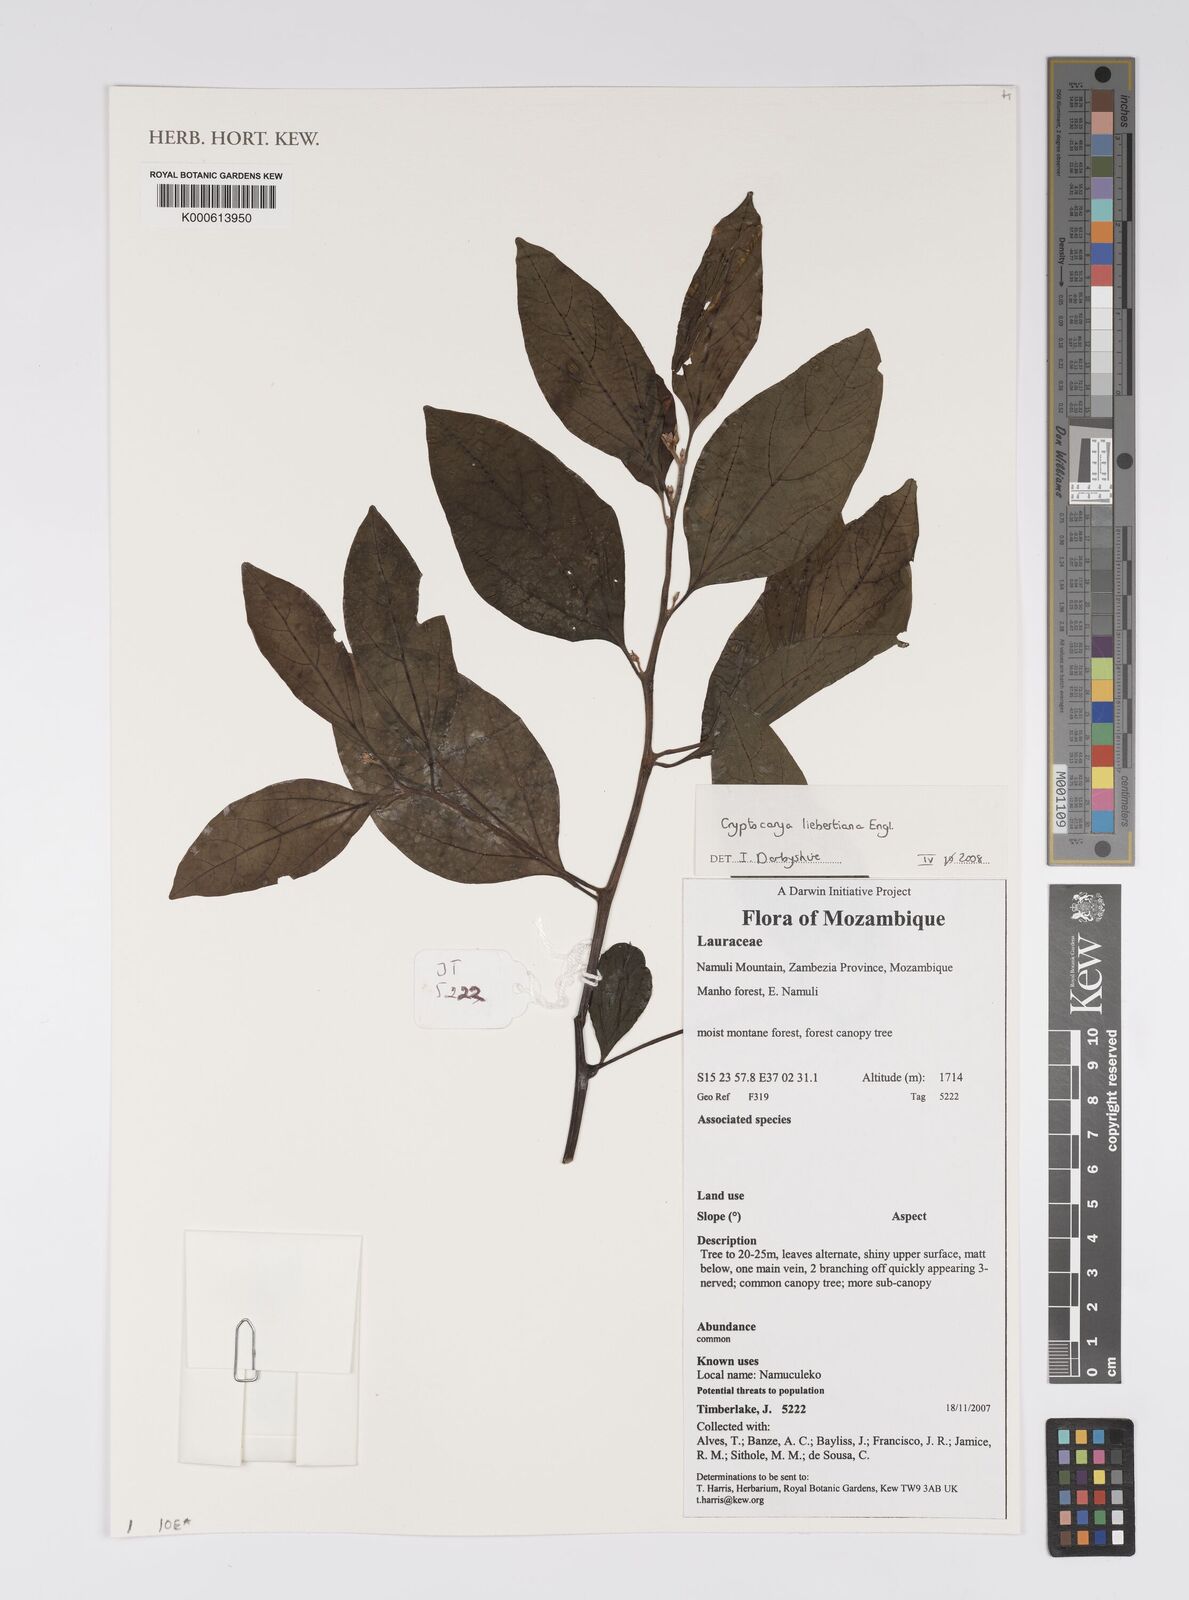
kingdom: Plantae
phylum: Tracheophyta
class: Magnoliopsida
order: Laurales
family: Lauraceae
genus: Cryptocarya
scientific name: Cryptocarya liebertiana
